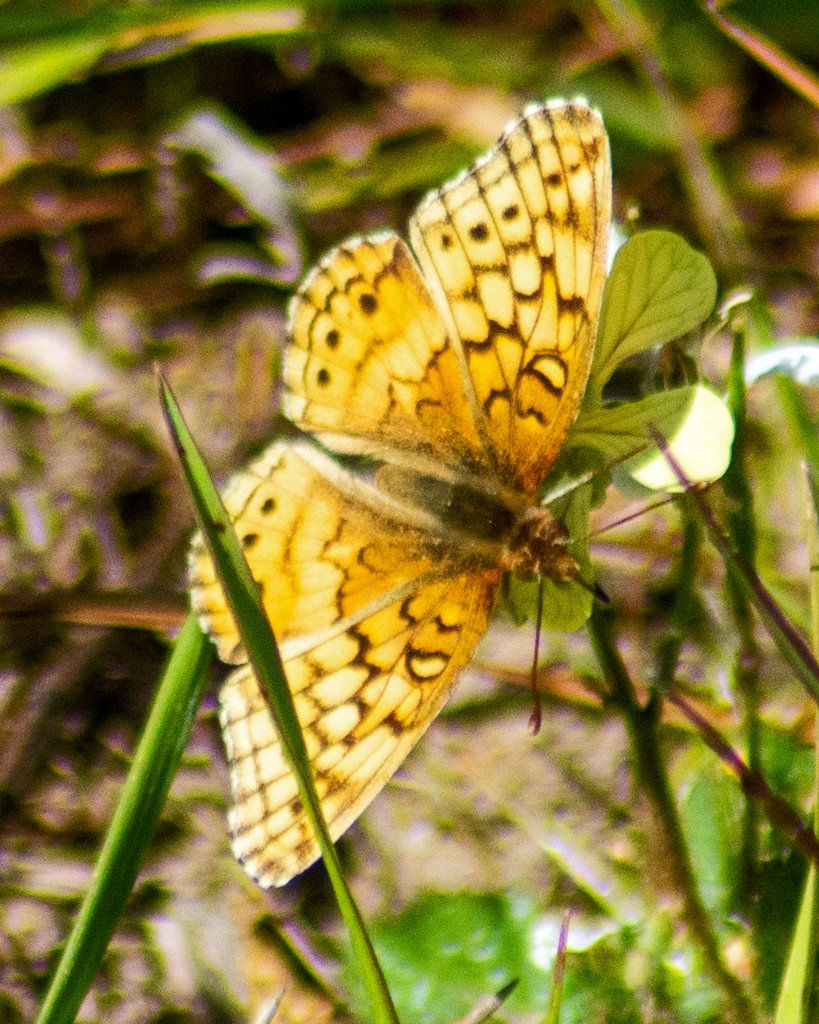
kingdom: Animalia
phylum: Arthropoda
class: Insecta
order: Lepidoptera
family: Nymphalidae
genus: Euptoieta
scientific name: Euptoieta claudia
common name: Variegated Fritillary
